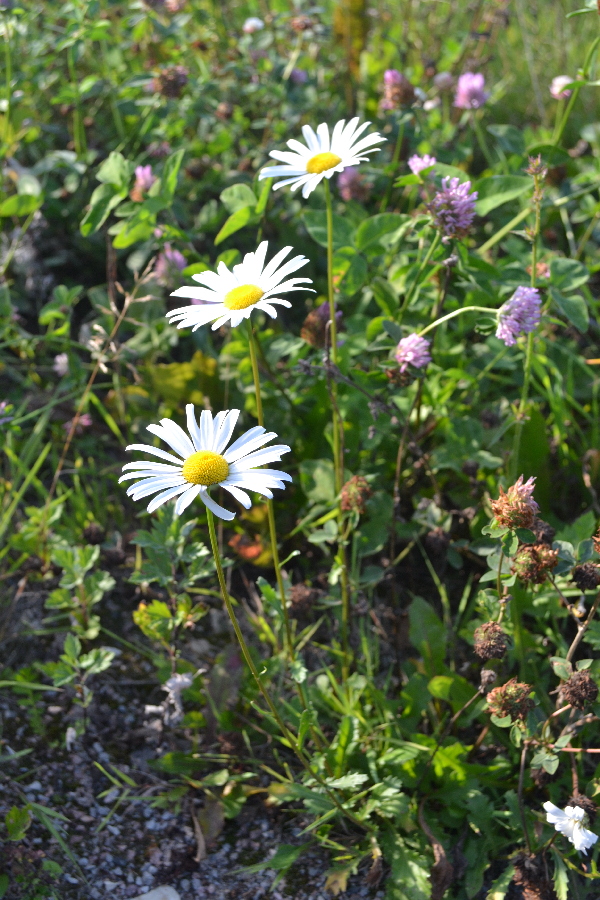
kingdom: Plantae
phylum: Tracheophyta
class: Magnoliopsida
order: Asterales
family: Asteraceae
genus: Leucanthemum
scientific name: Leucanthemum vulgare
